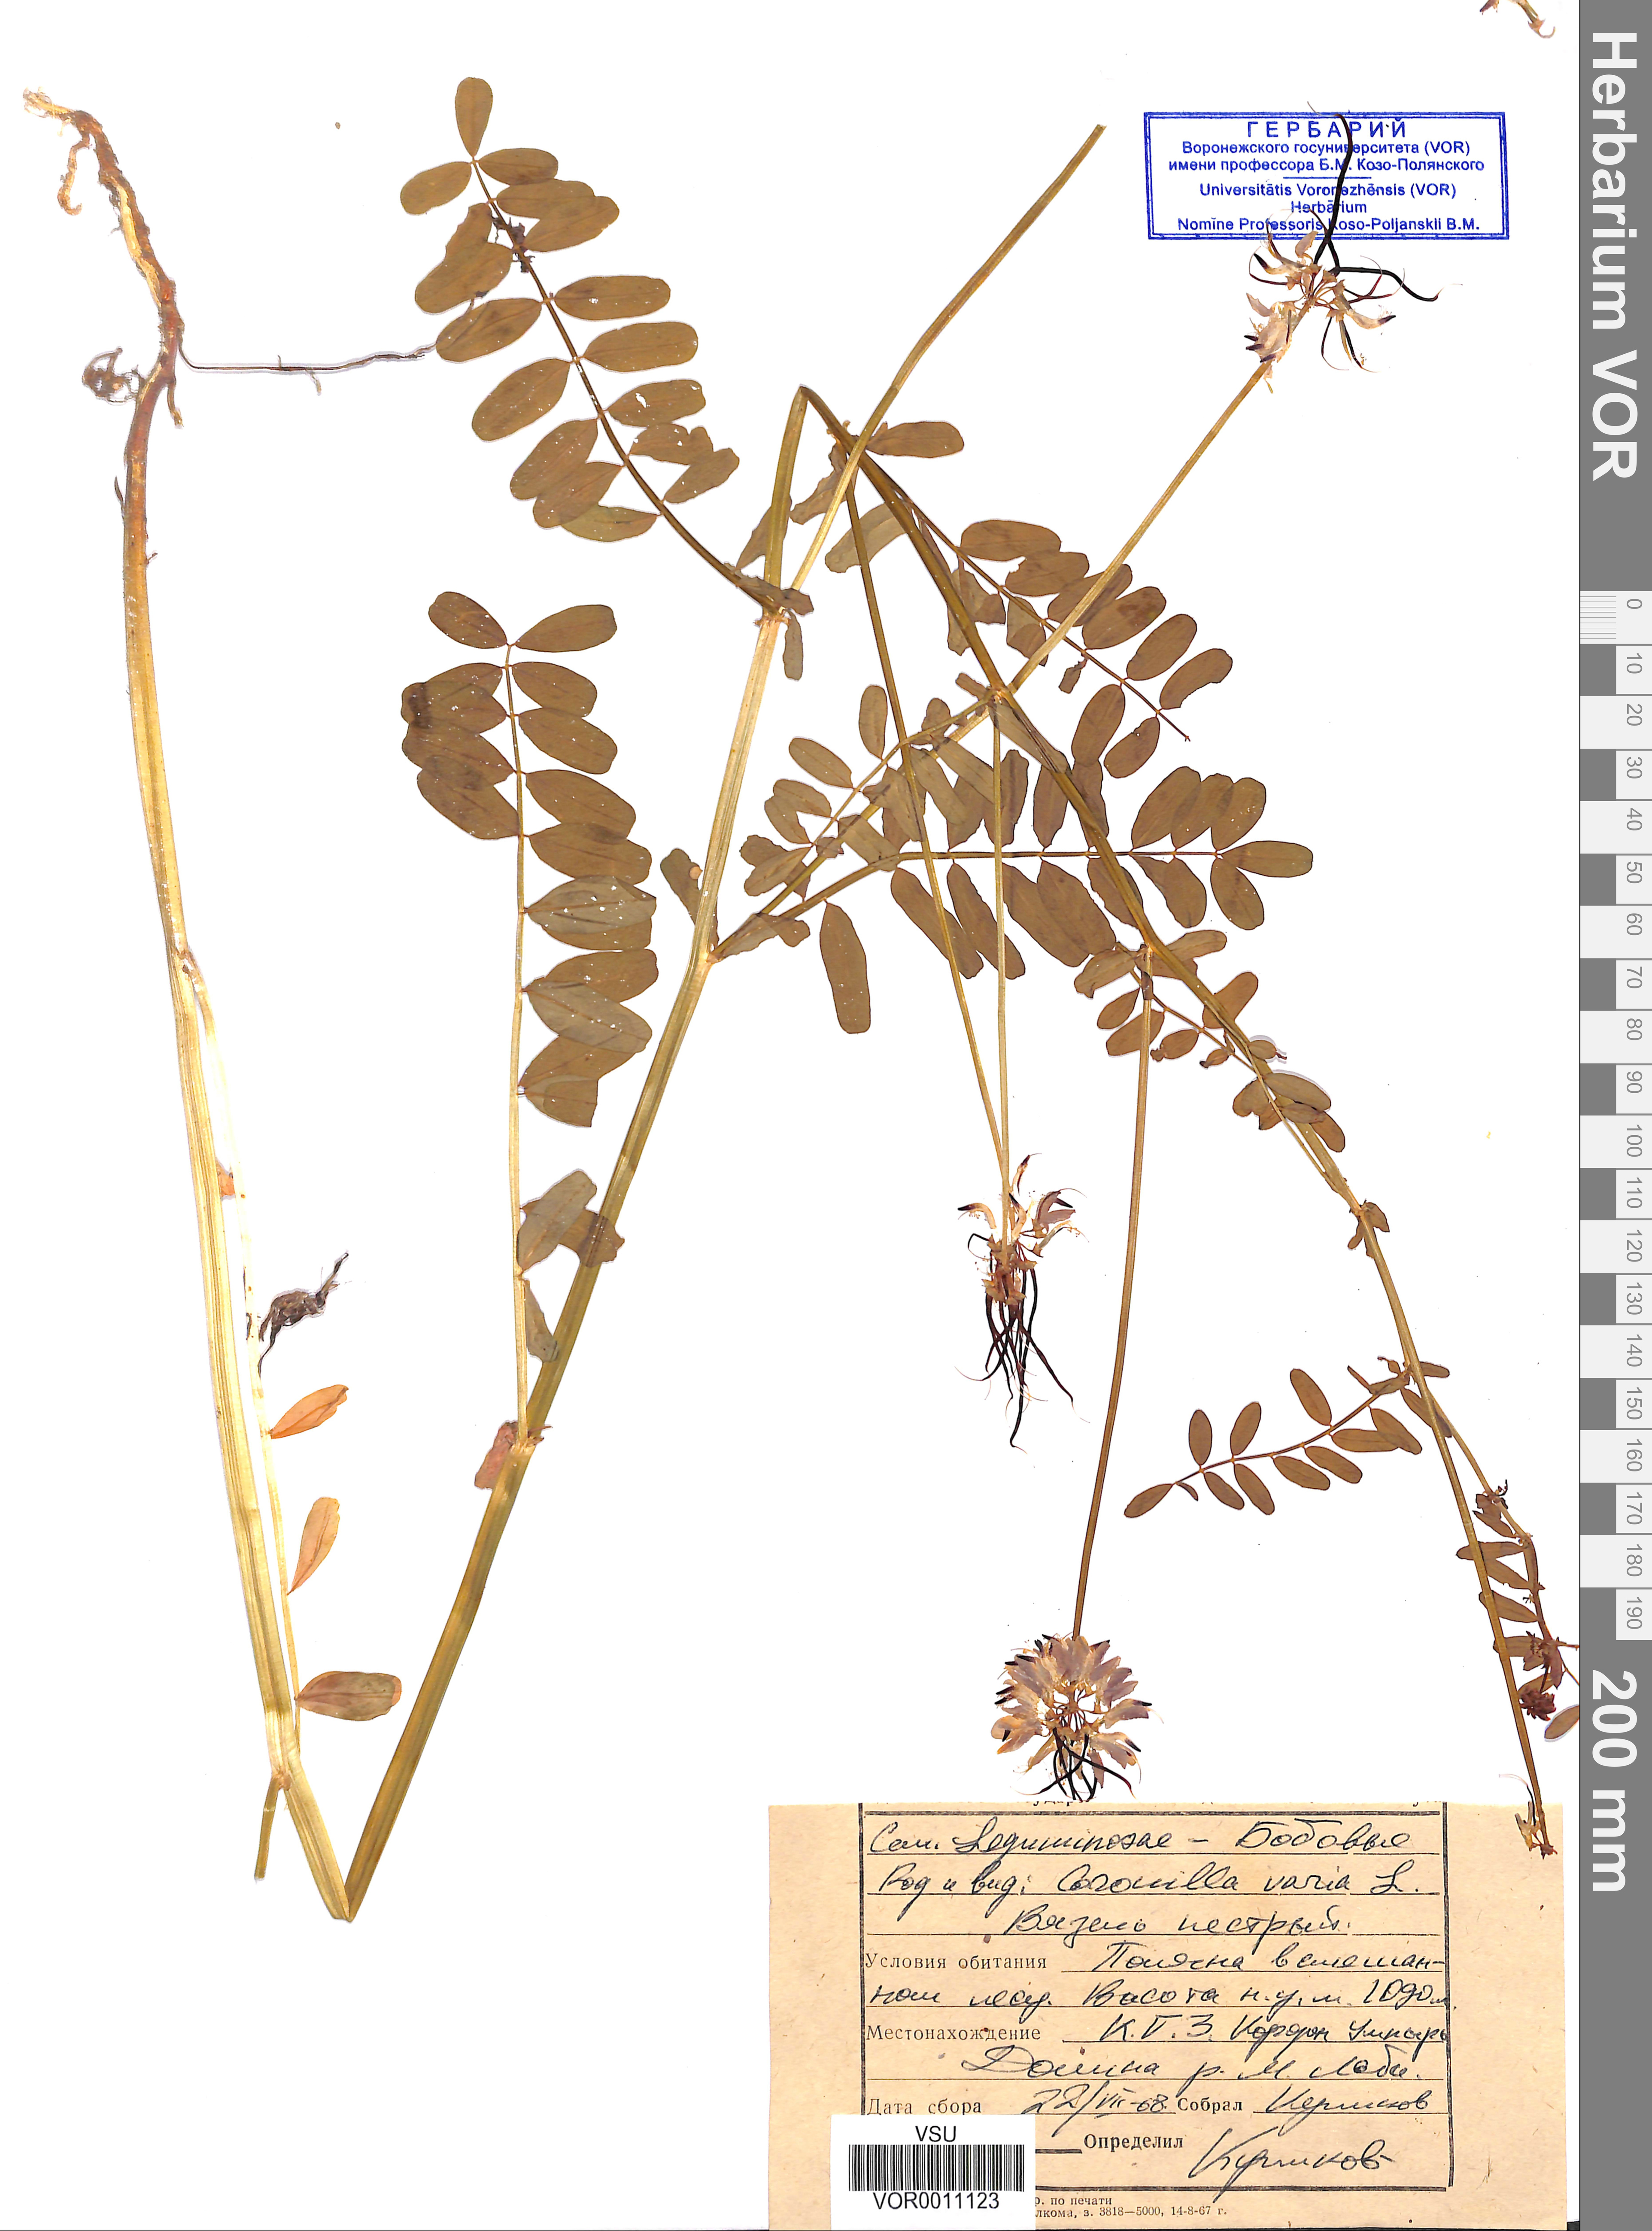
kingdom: Plantae
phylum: Tracheophyta
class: Magnoliopsida
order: Fabales
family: Fabaceae
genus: Coronilla
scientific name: Coronilla varia
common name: Crownvetch
